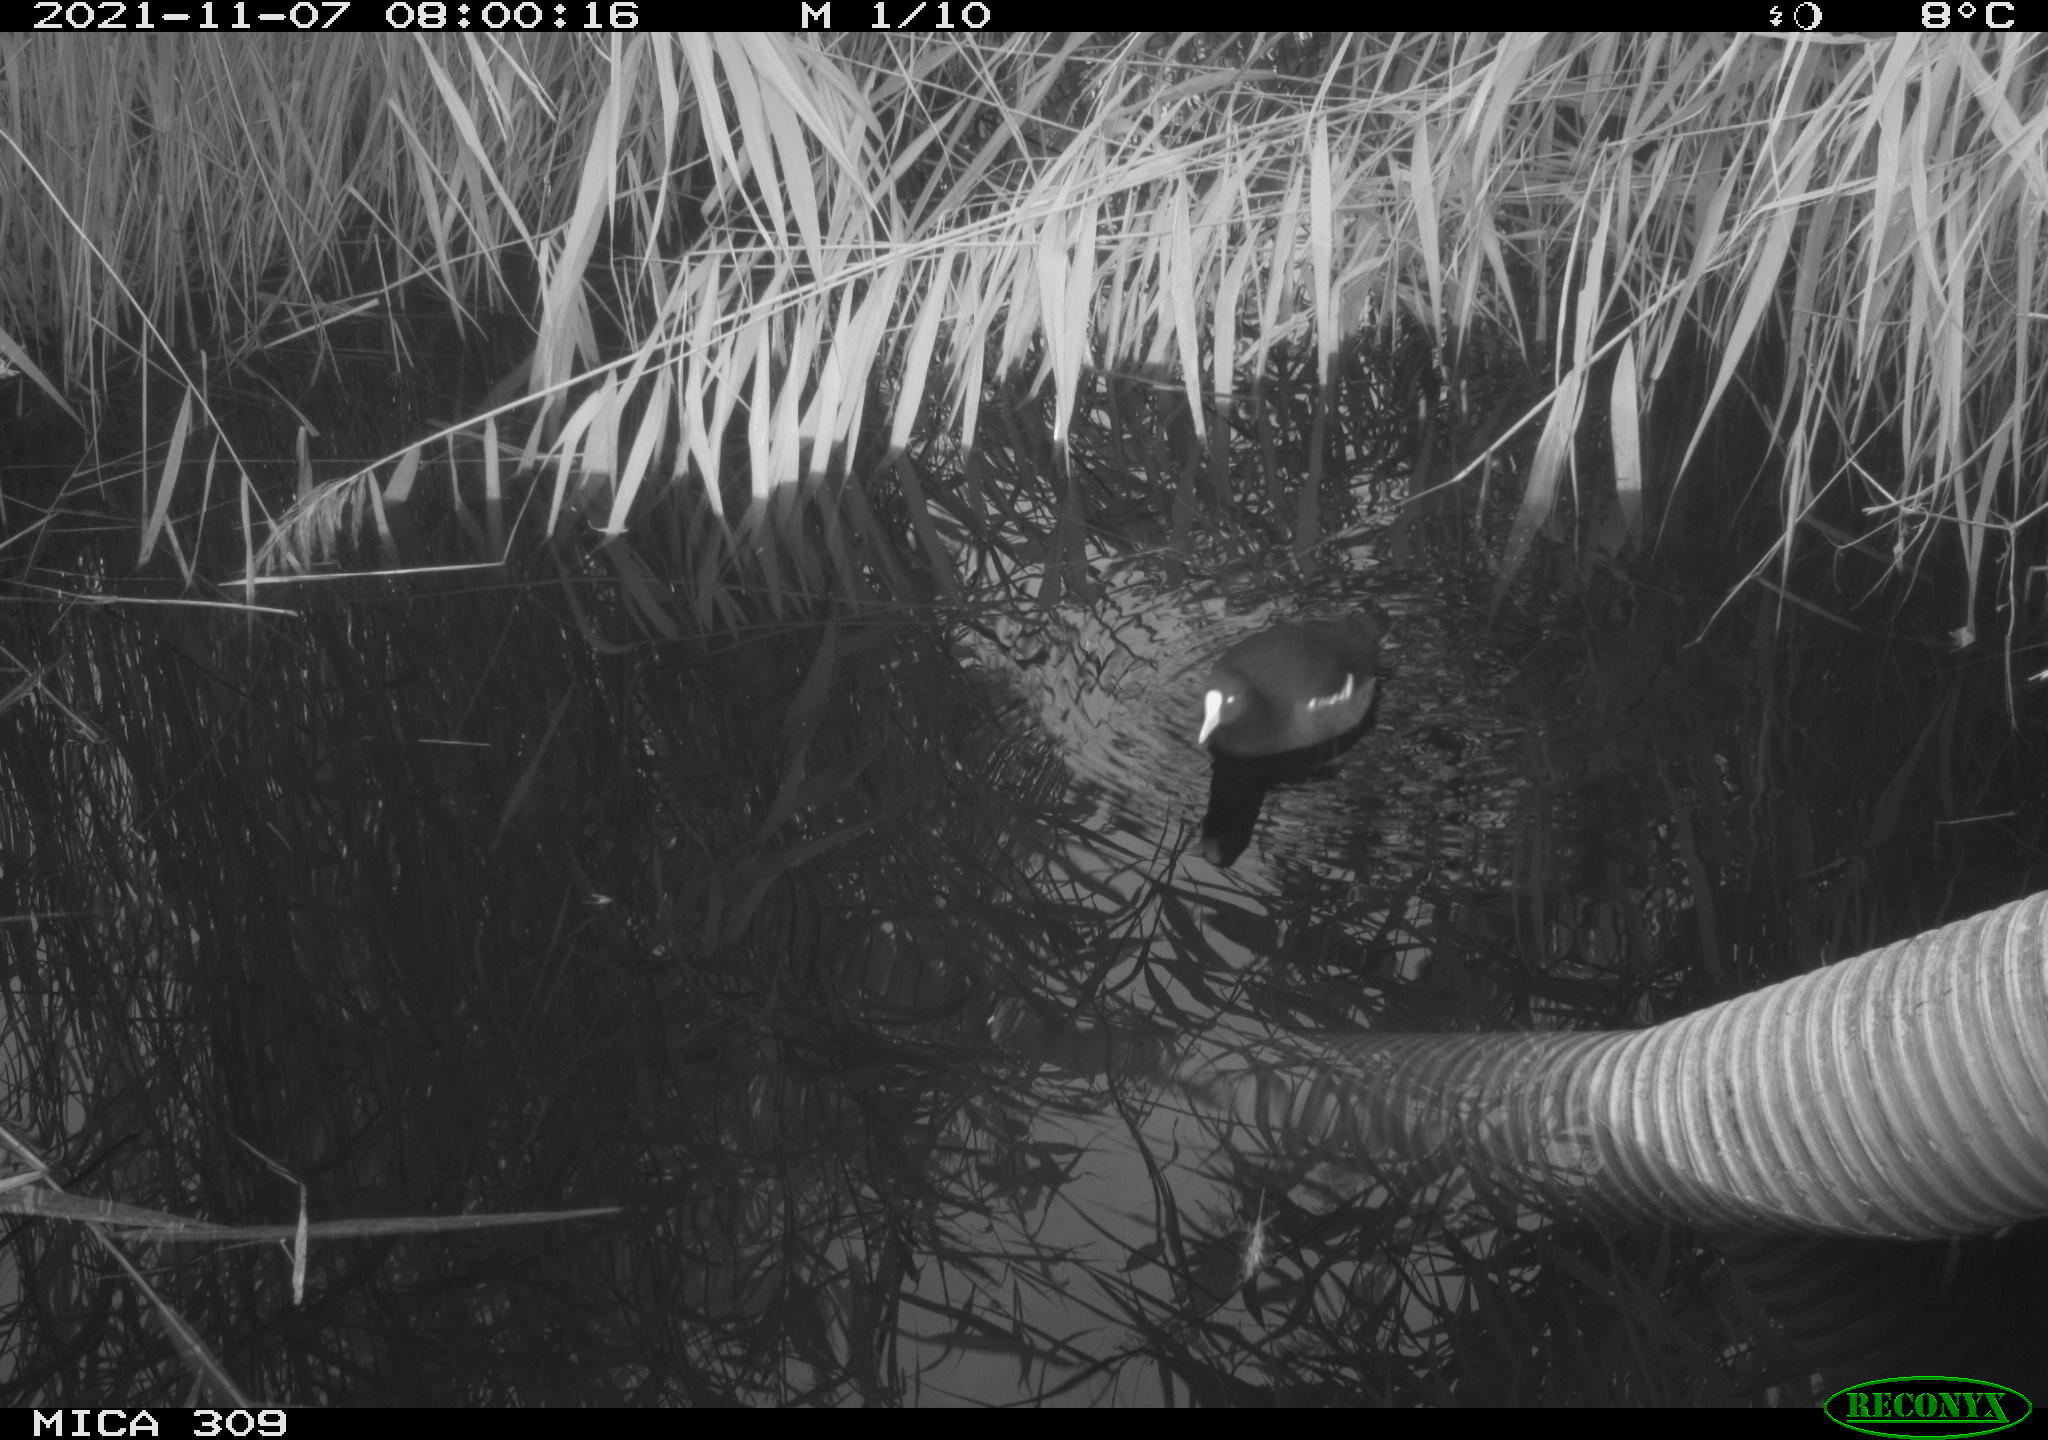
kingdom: Animalia
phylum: Chordata
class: Aves
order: Gruiformes
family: Rallidae
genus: Gallinula
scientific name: Gallinula chloropus
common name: Common moorhen
